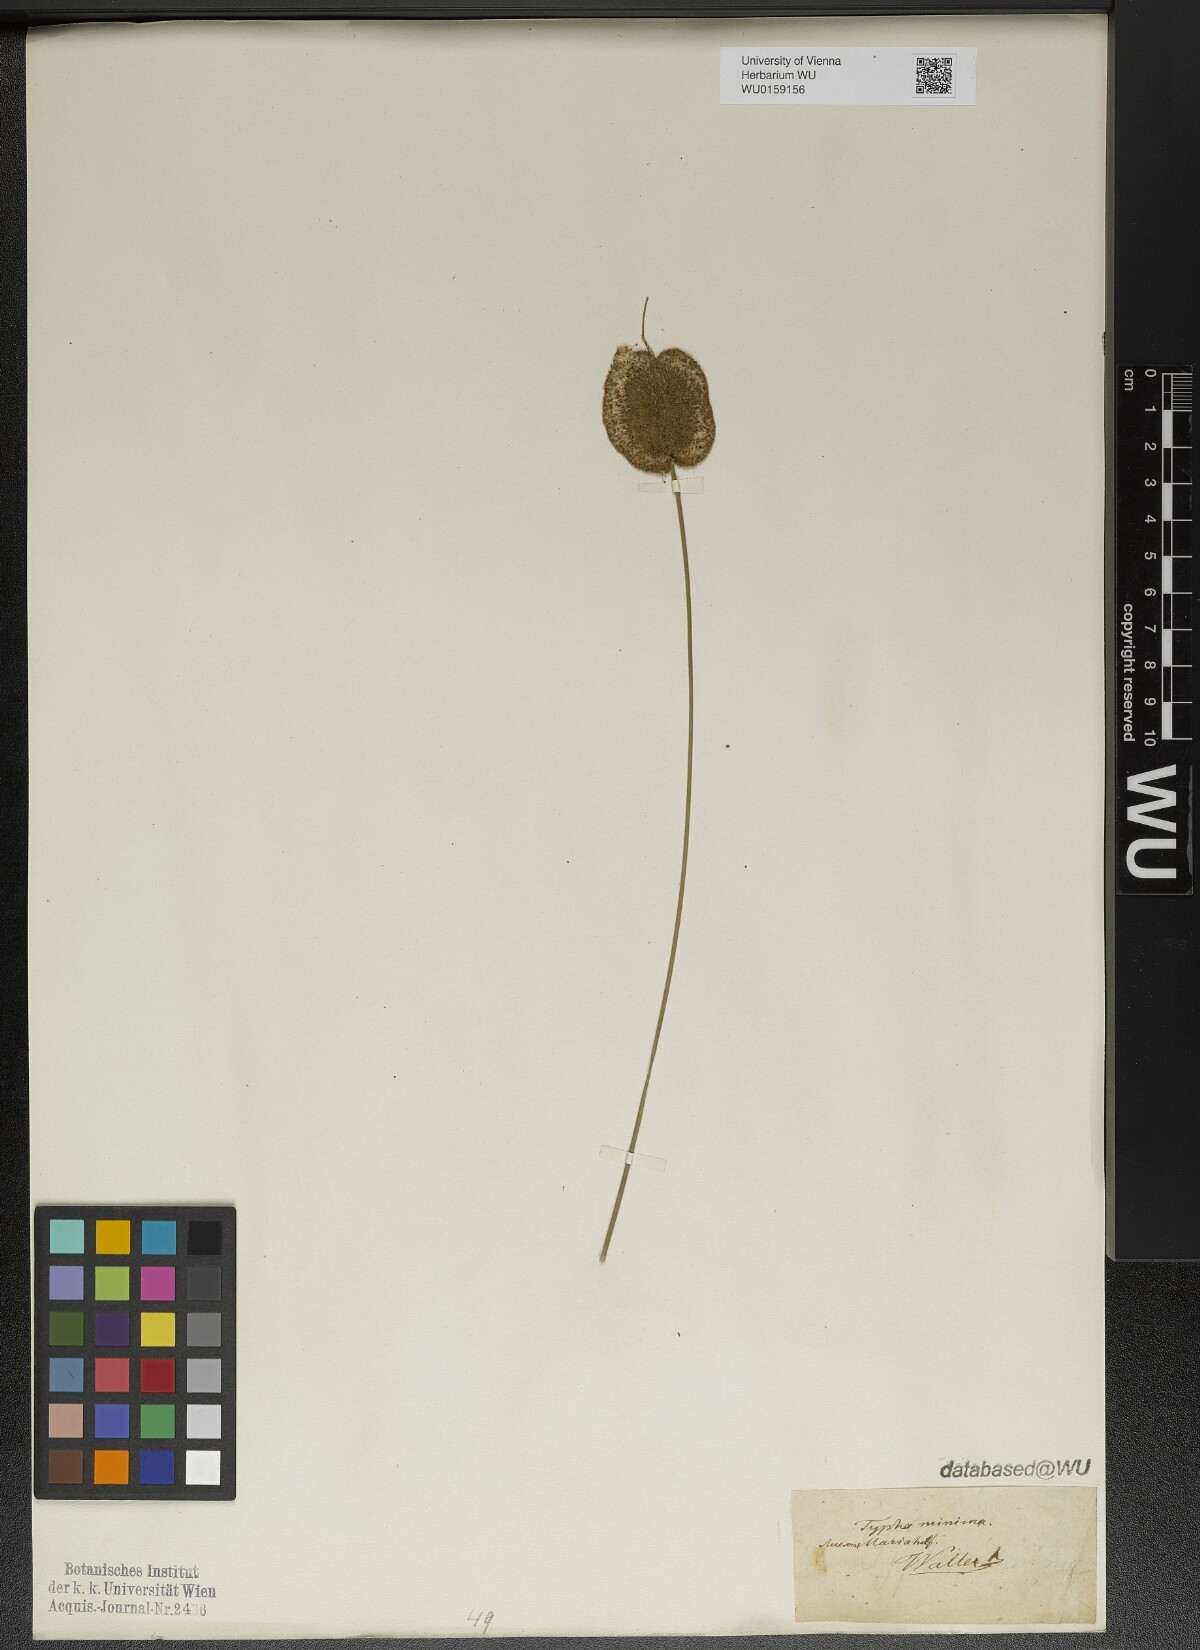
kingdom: Plantae
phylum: Tracheophyta
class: Liliopsida
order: Poales
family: Typhaceae
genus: Typha
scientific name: Typha minima
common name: Dwarf bulrush
